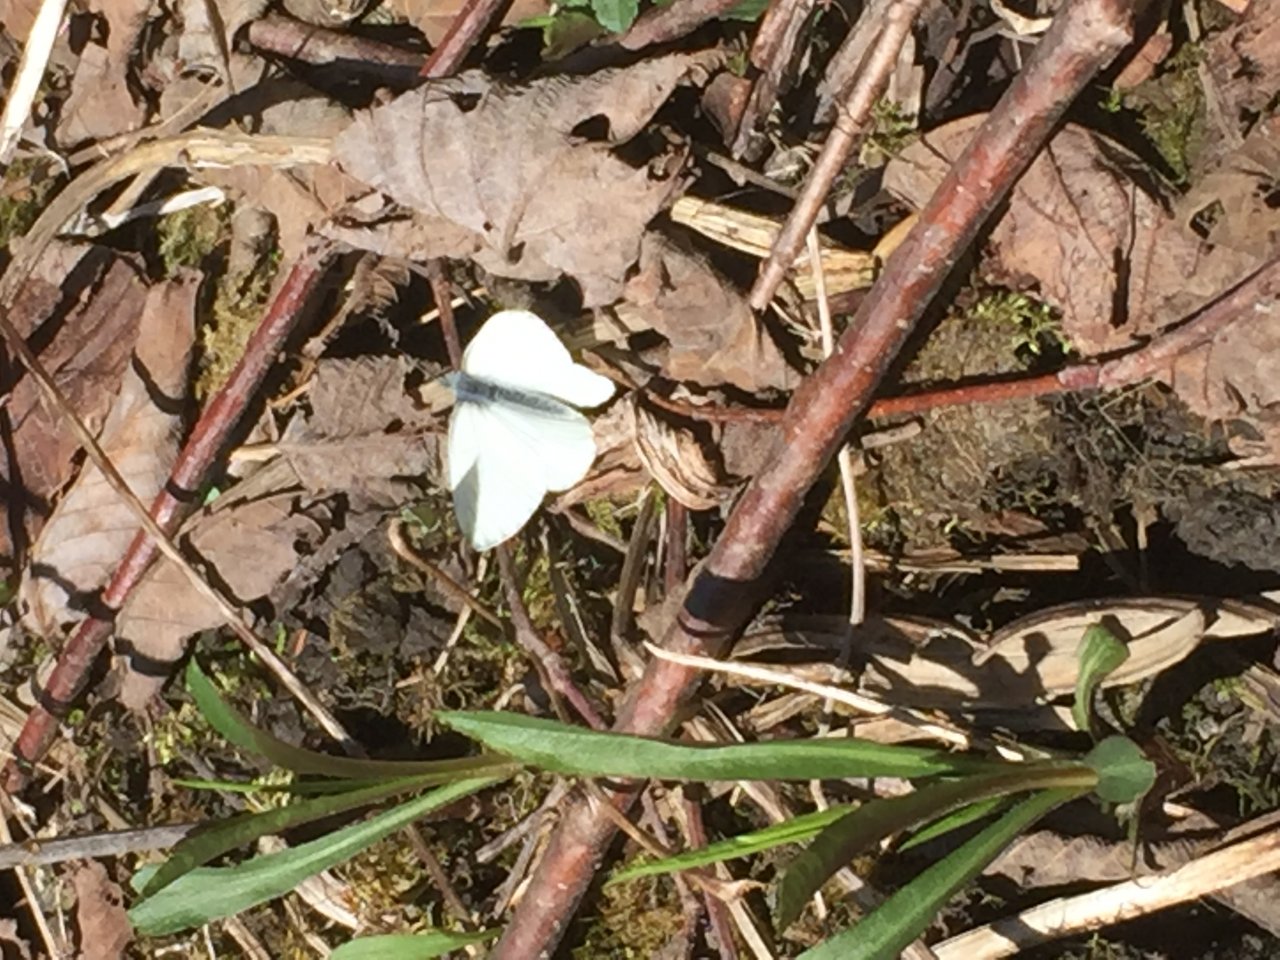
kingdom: Animalia
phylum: Arthropoda
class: Insecta
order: Lepidoptera
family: Pieridae
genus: Pieris
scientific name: Pieris oleracea
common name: Mustard White
